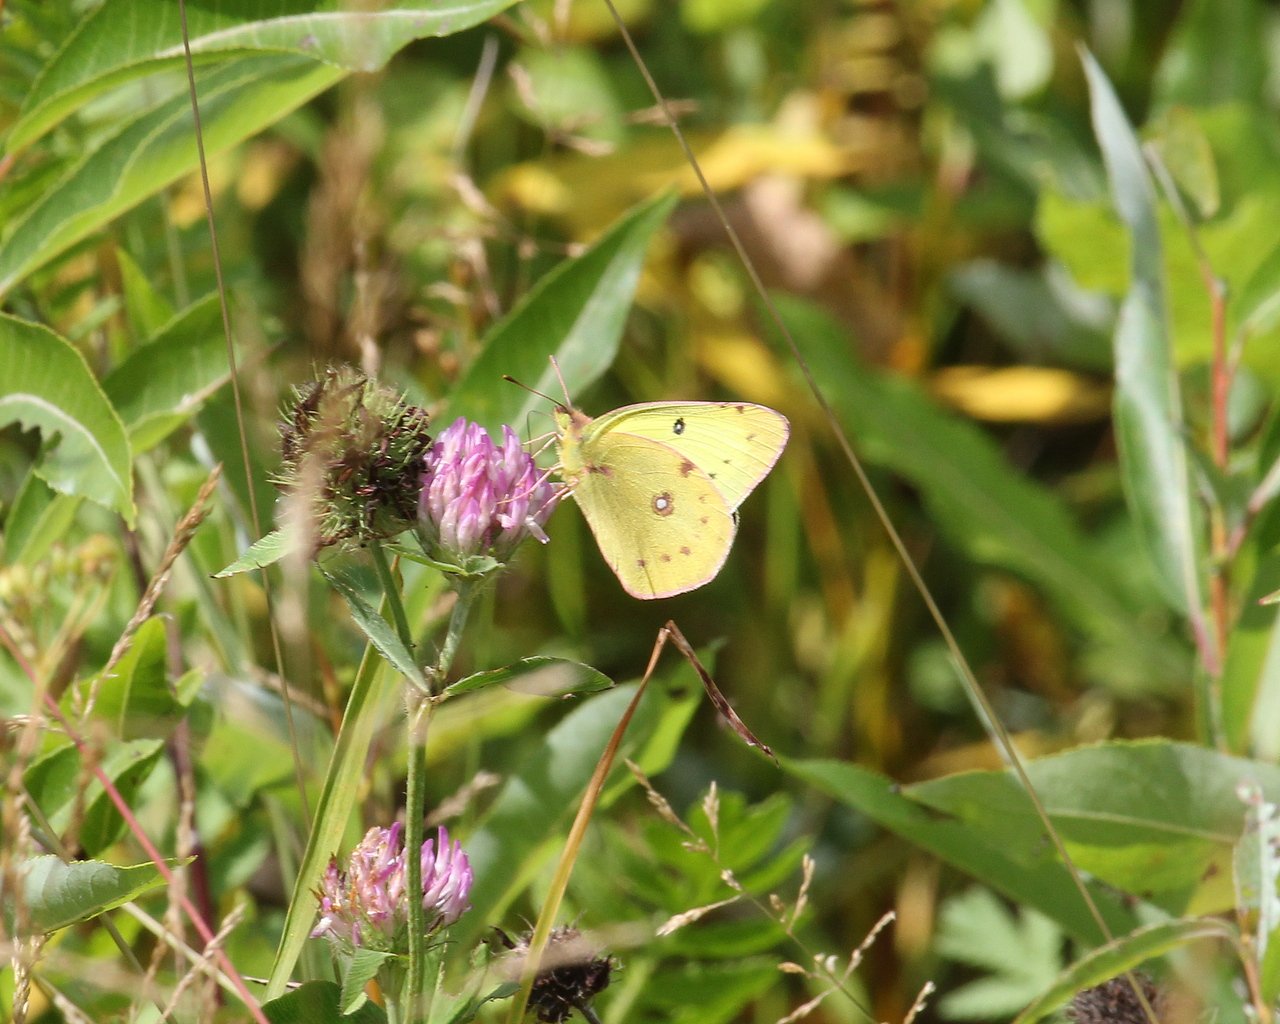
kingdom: Animalia
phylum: Arthropoda
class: Insecta
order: Lepidoptera
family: Pieridae
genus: Colias
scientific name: Colias philodice
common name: Clouded Sulphur
